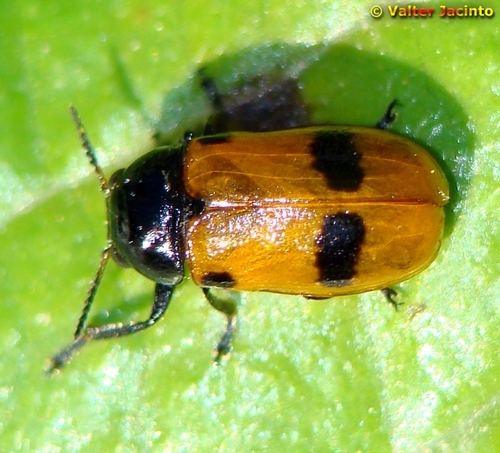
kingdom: Animalia
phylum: Arthropoda
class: Insecta
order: Coleoptera
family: Chrysomelidae
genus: Clythrina
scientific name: Clythrina
